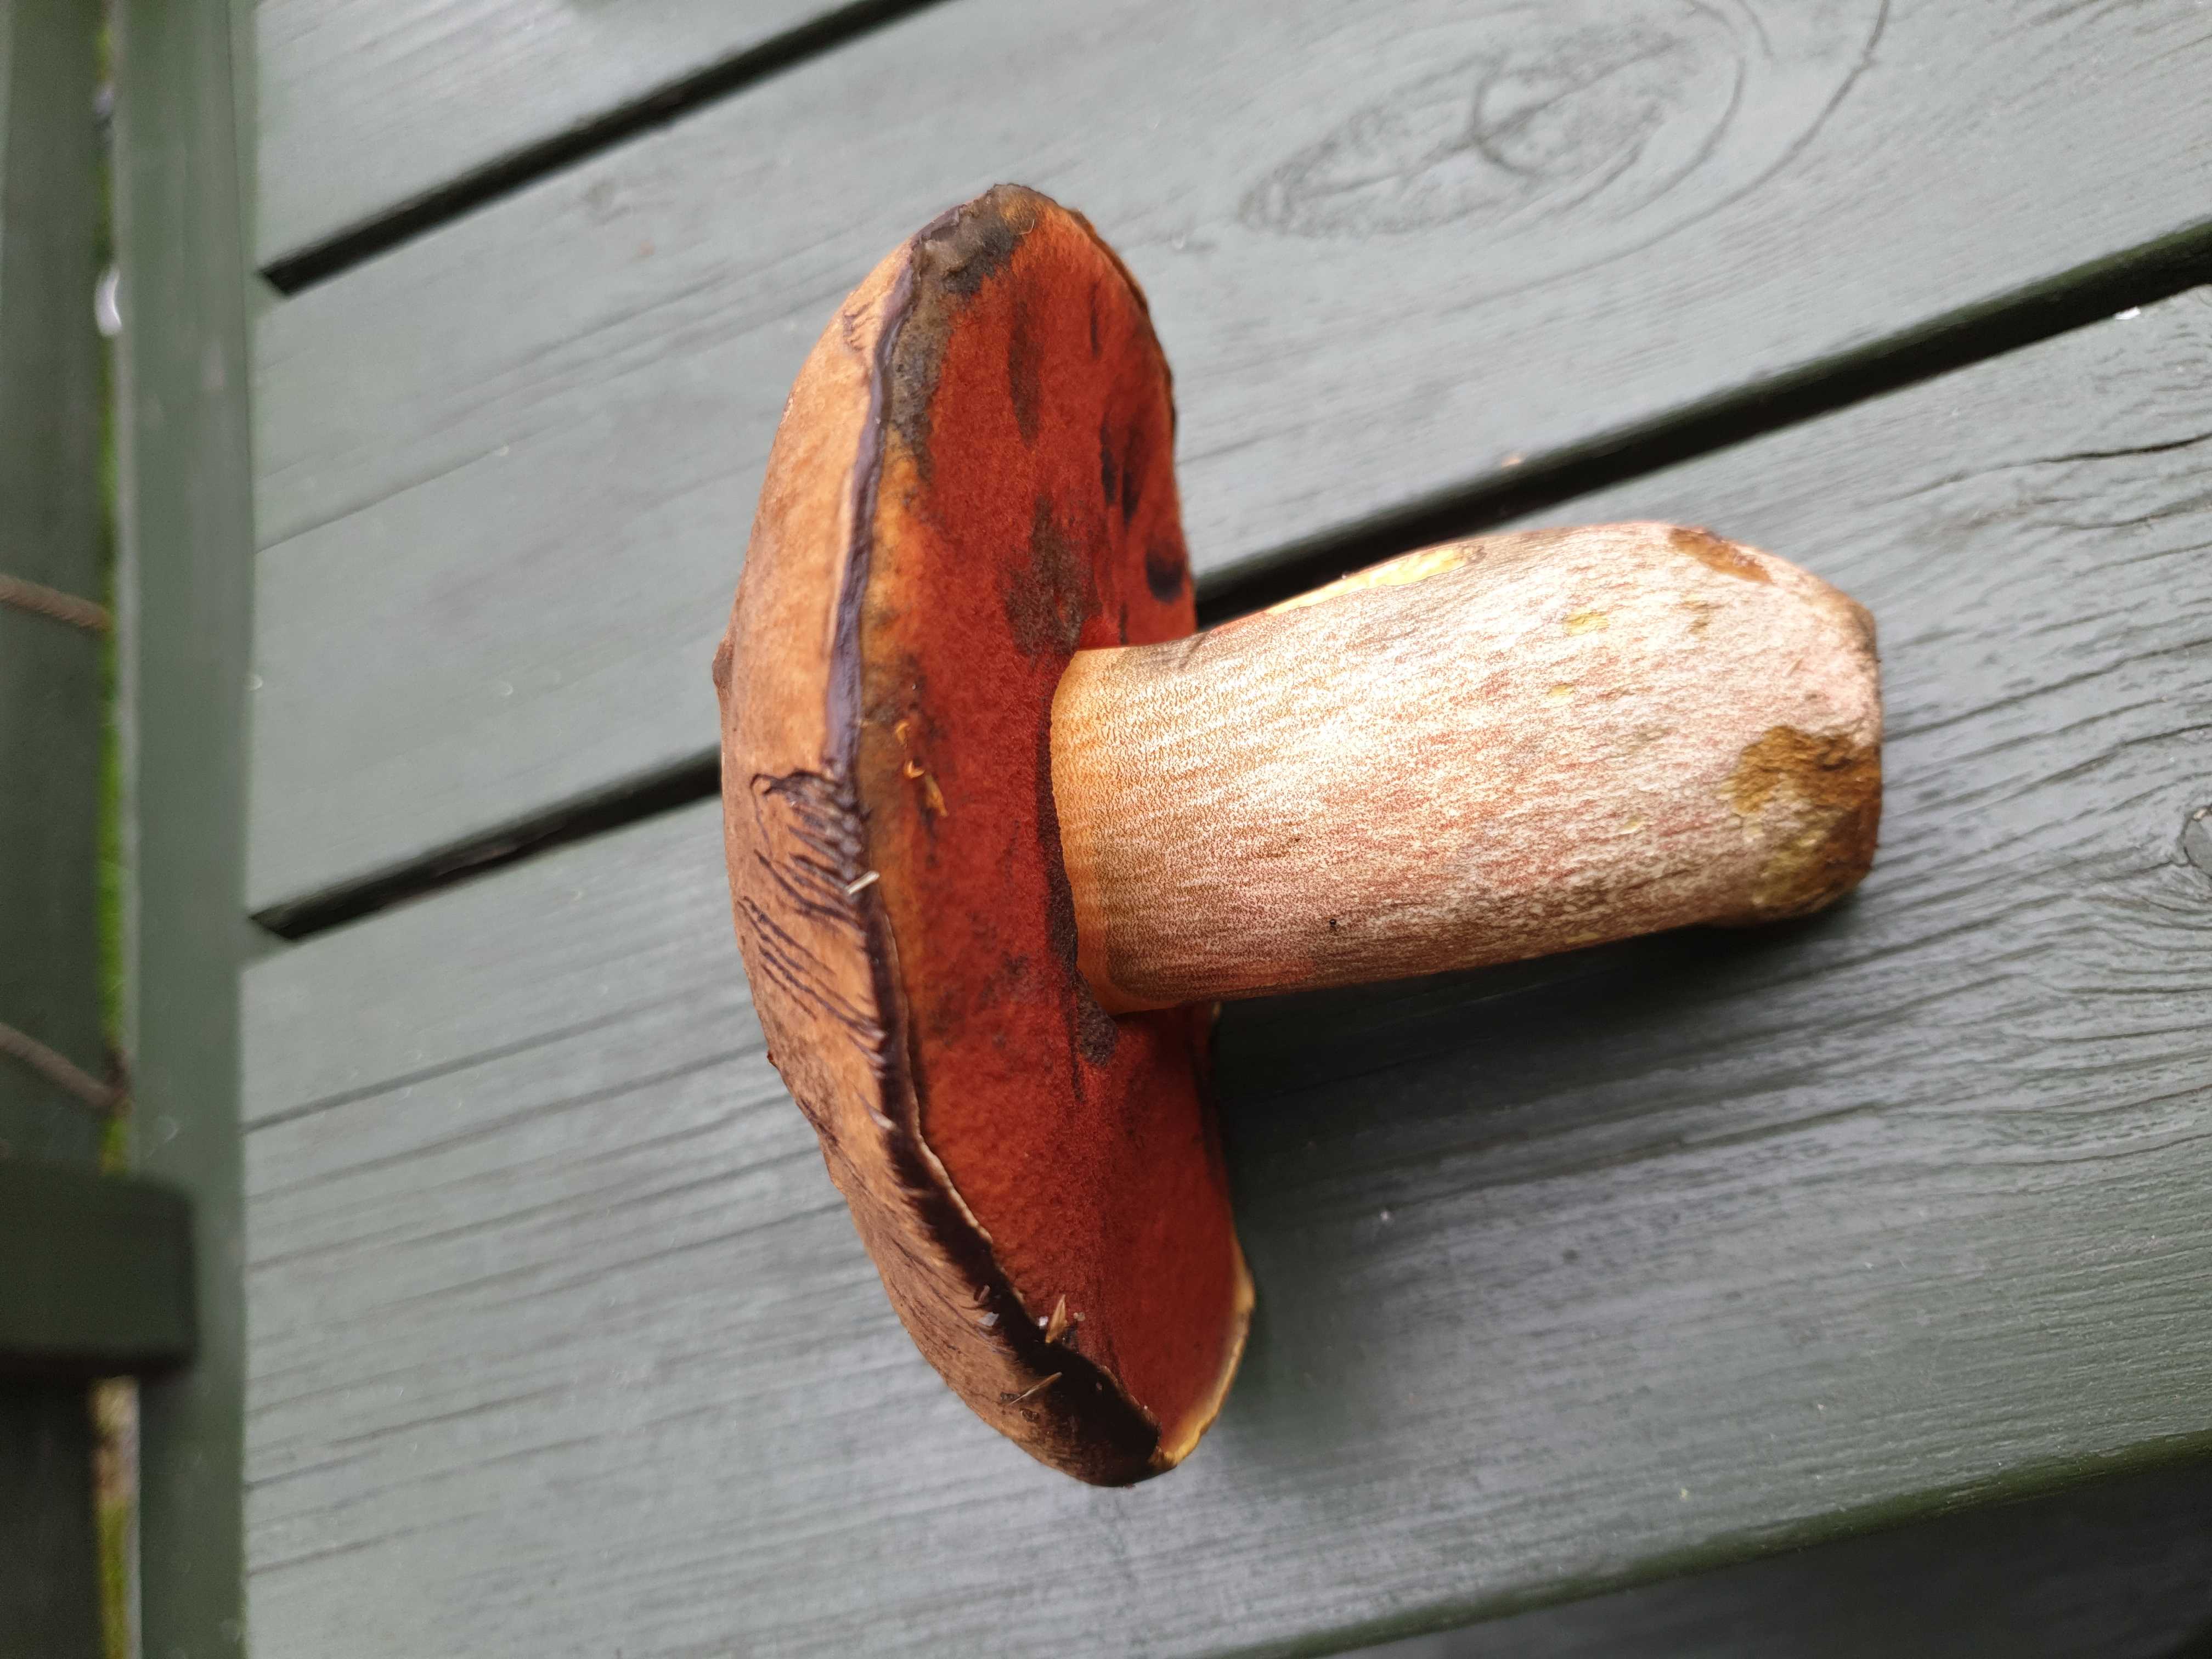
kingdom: Fungi
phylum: Basidiomycota
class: Agaricomycetes
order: Boletales
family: Boletaceae
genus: Neoboletus
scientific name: Neoboletus erythropus
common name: punktstokket indigorørhat
